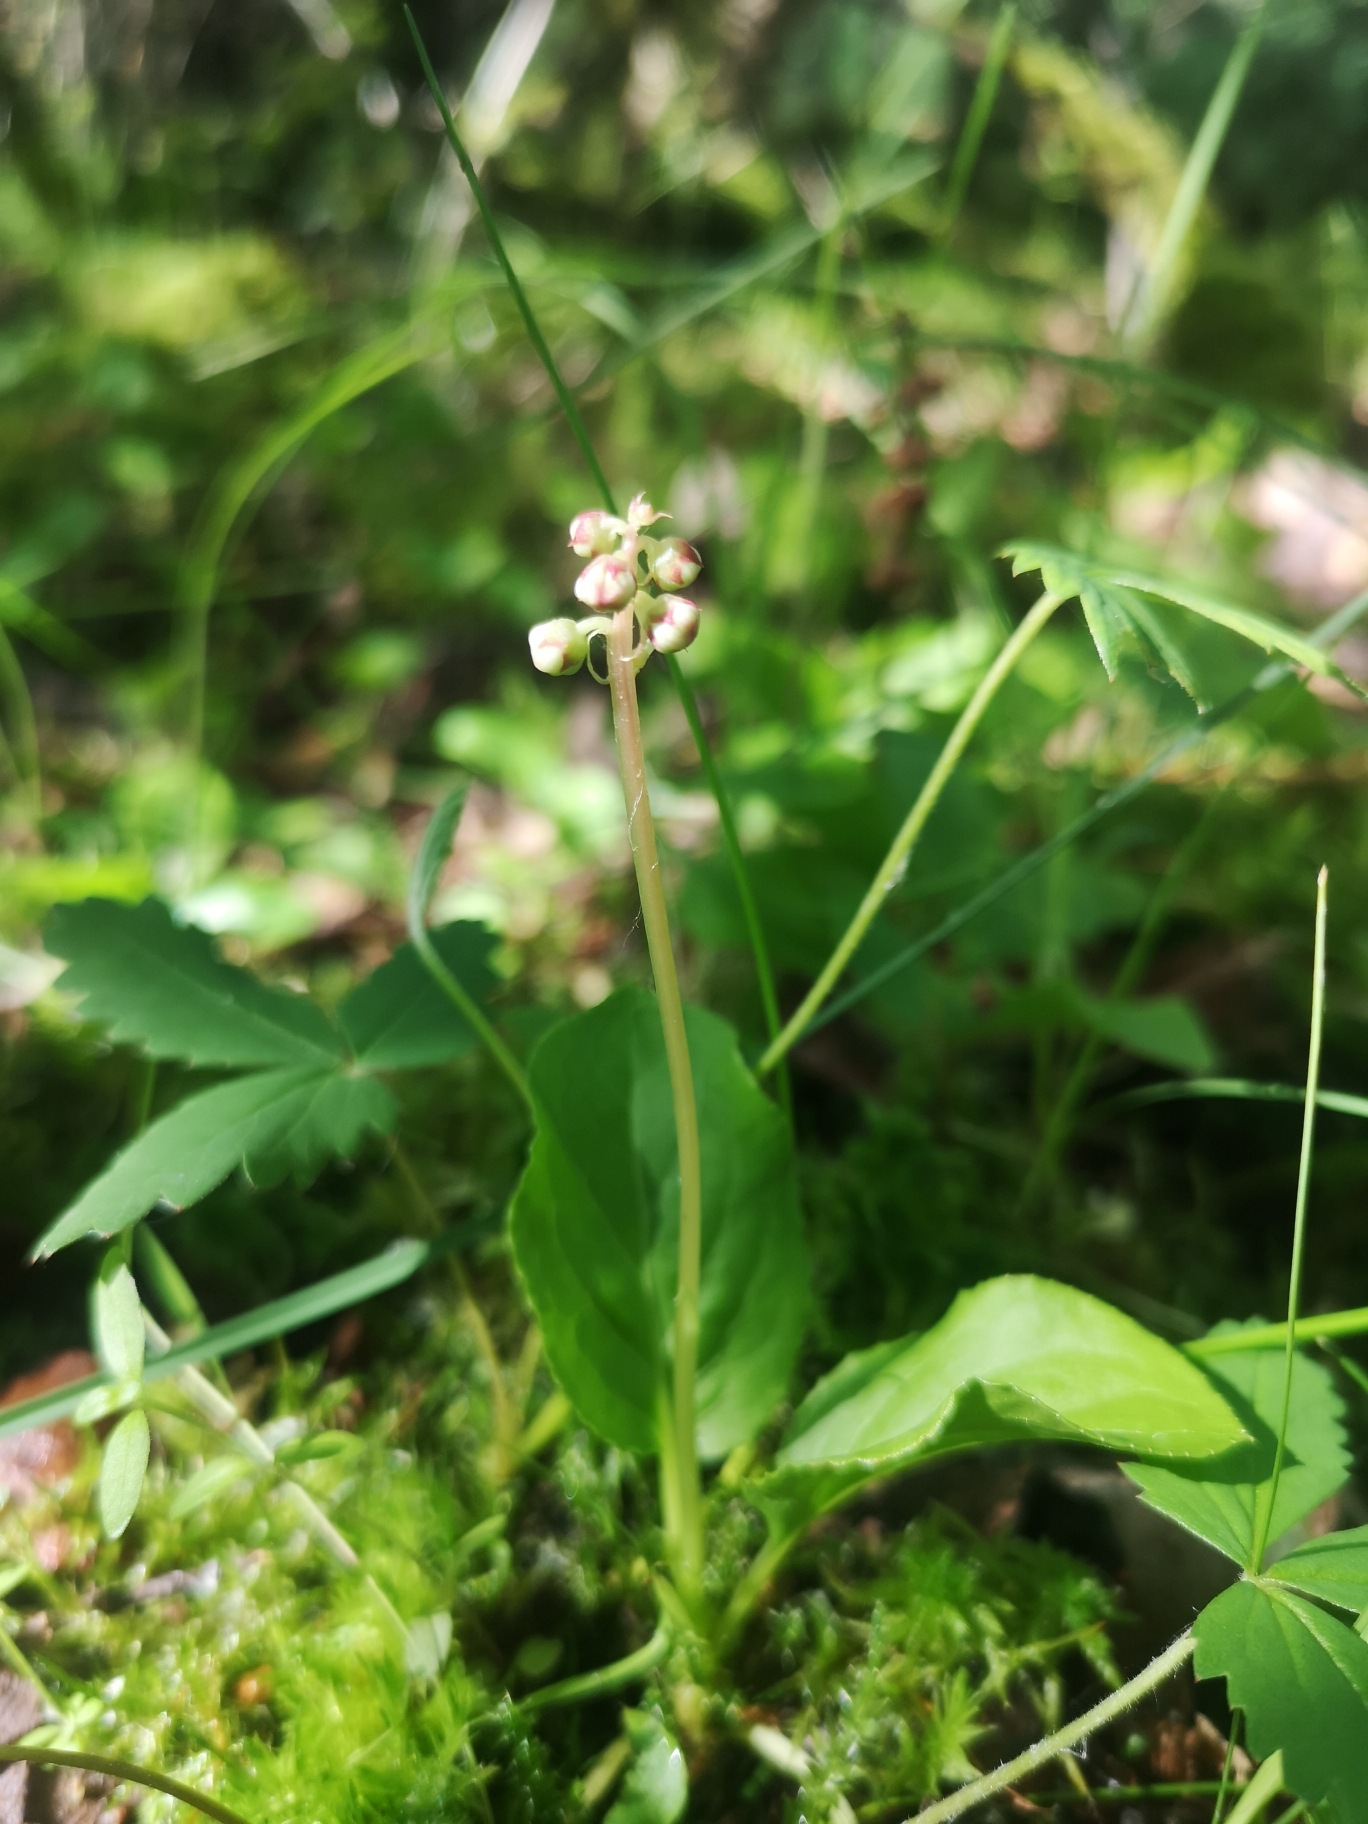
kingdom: Plantae
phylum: Tracheophyta
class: Magnoliopsida
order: Ericales
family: Ericaceae
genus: Pyrola
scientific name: Pyrola minor
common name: Liden vintergrøn
